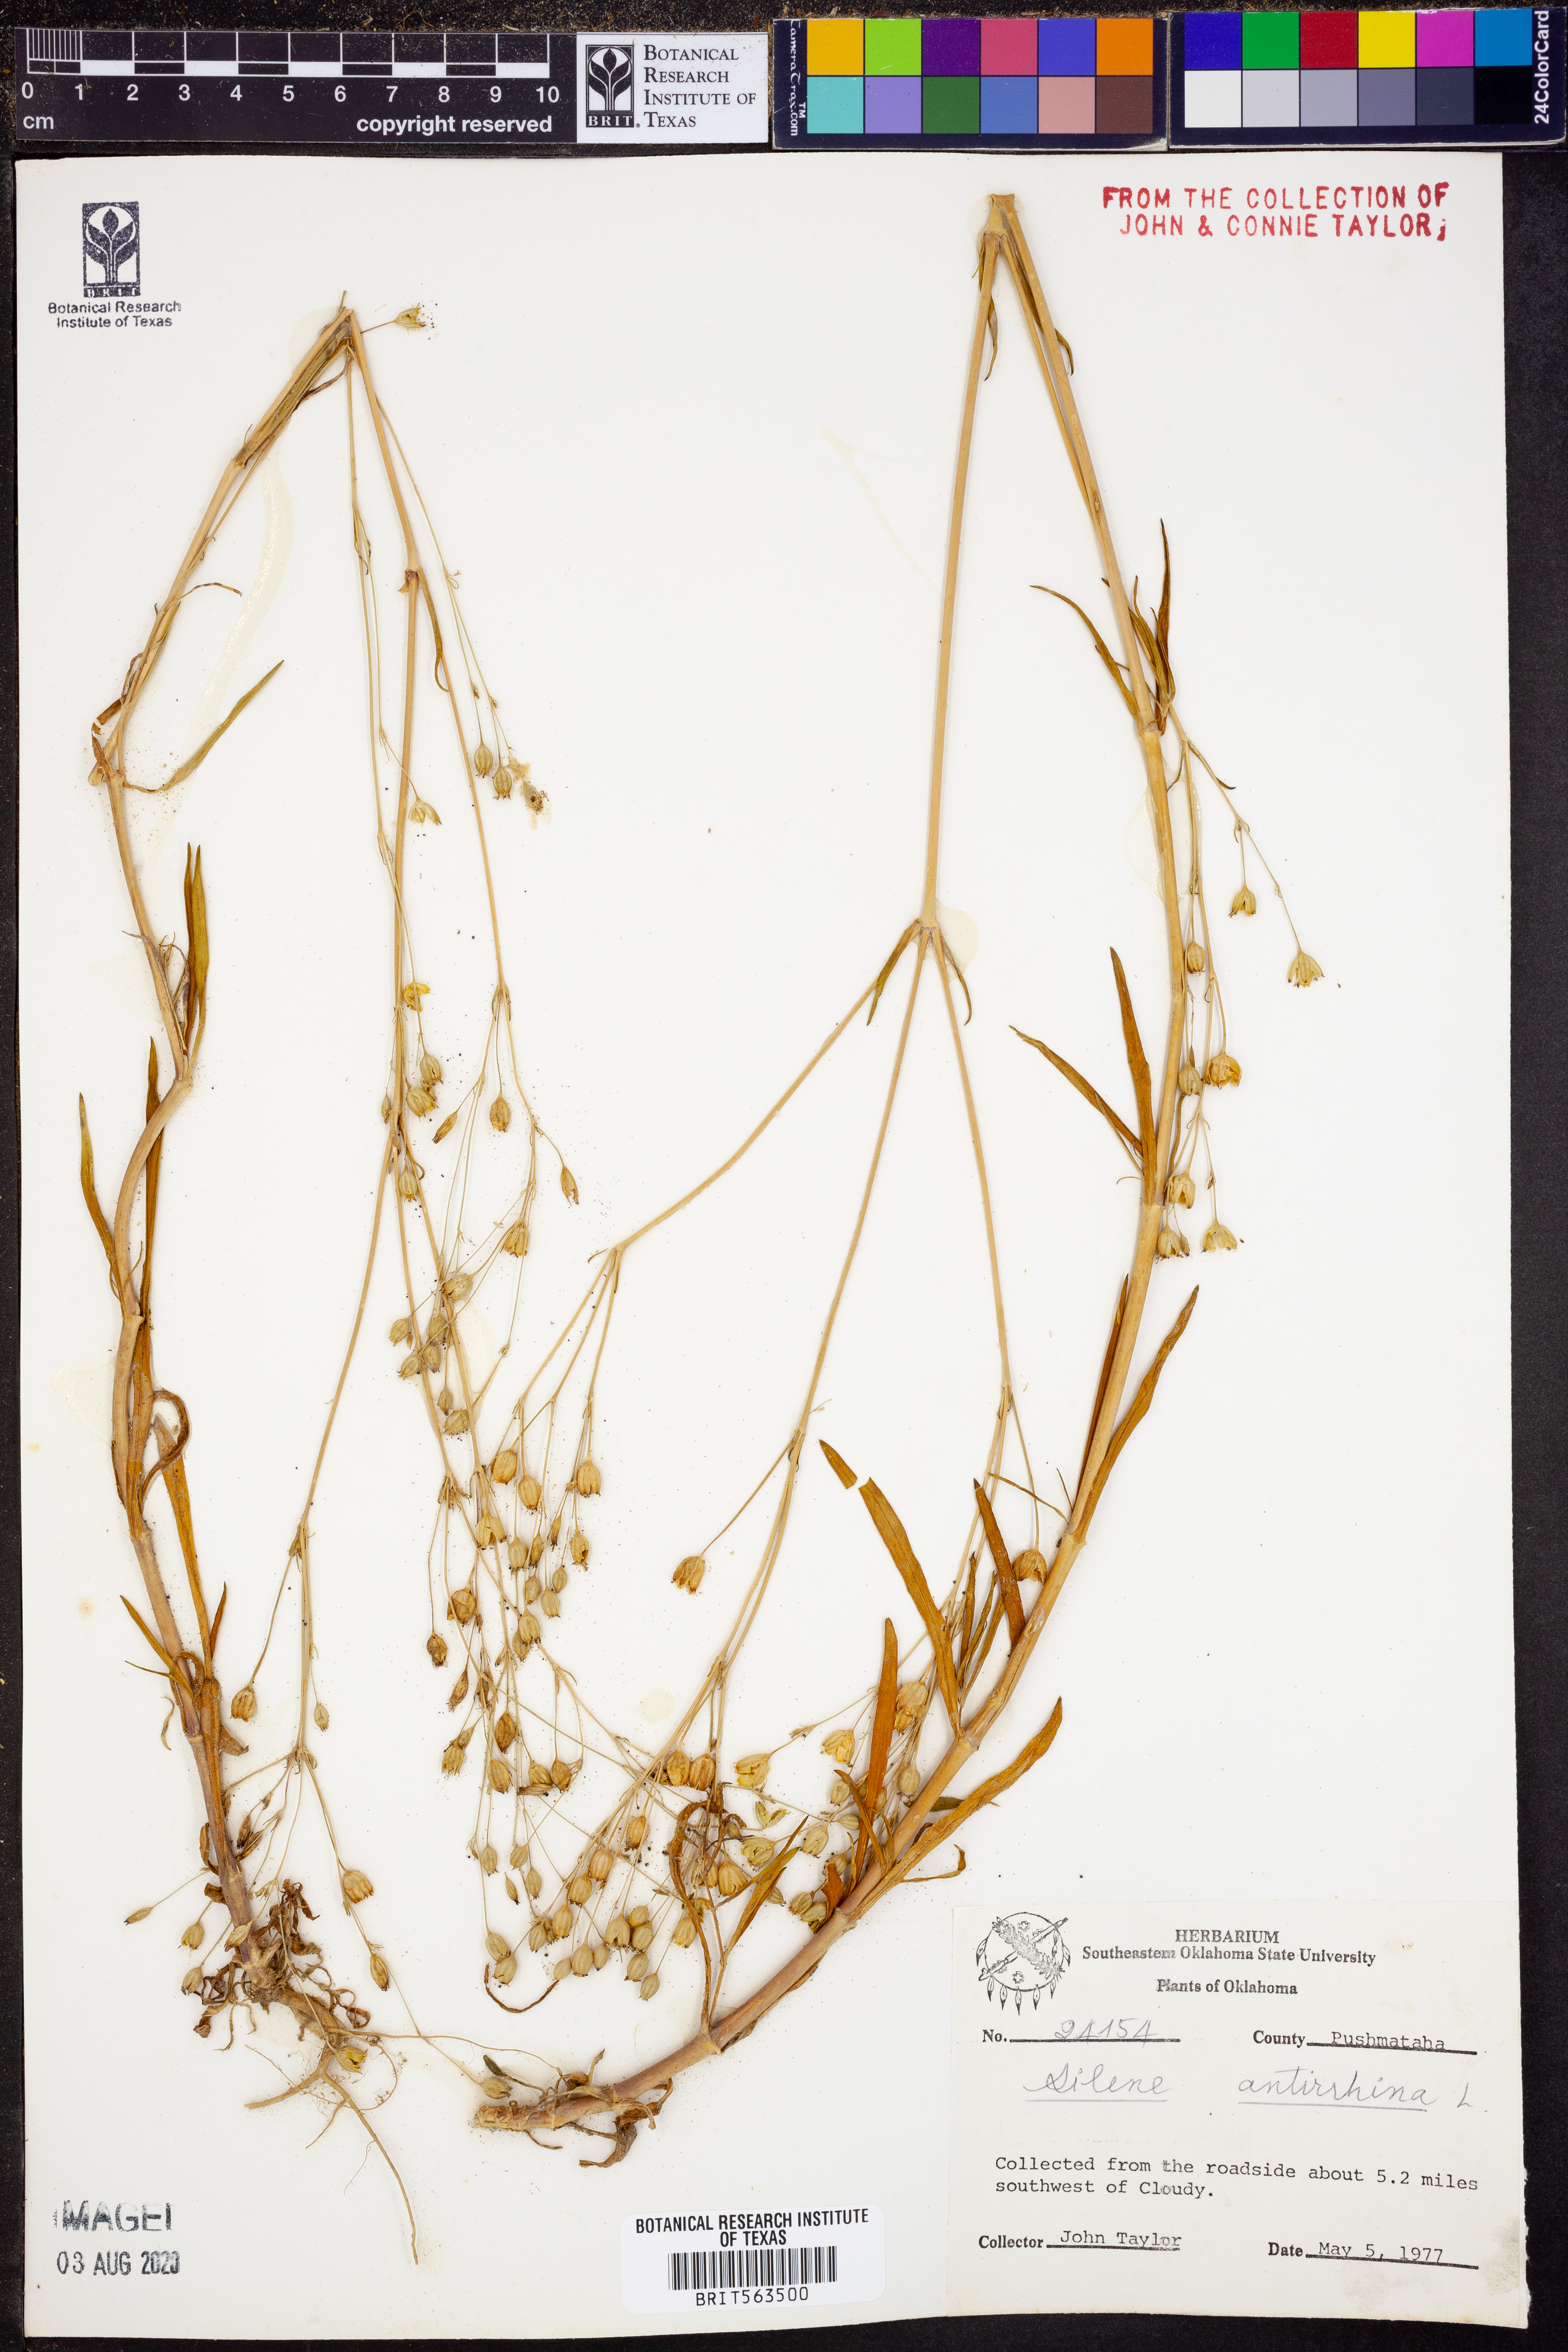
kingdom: Plantae
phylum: Tracheophyta
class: Magnoliopsida
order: Caryophyllales
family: Caryophyllaceae
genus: Silene
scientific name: Silene antirrhina
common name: Sleepy catchfly
